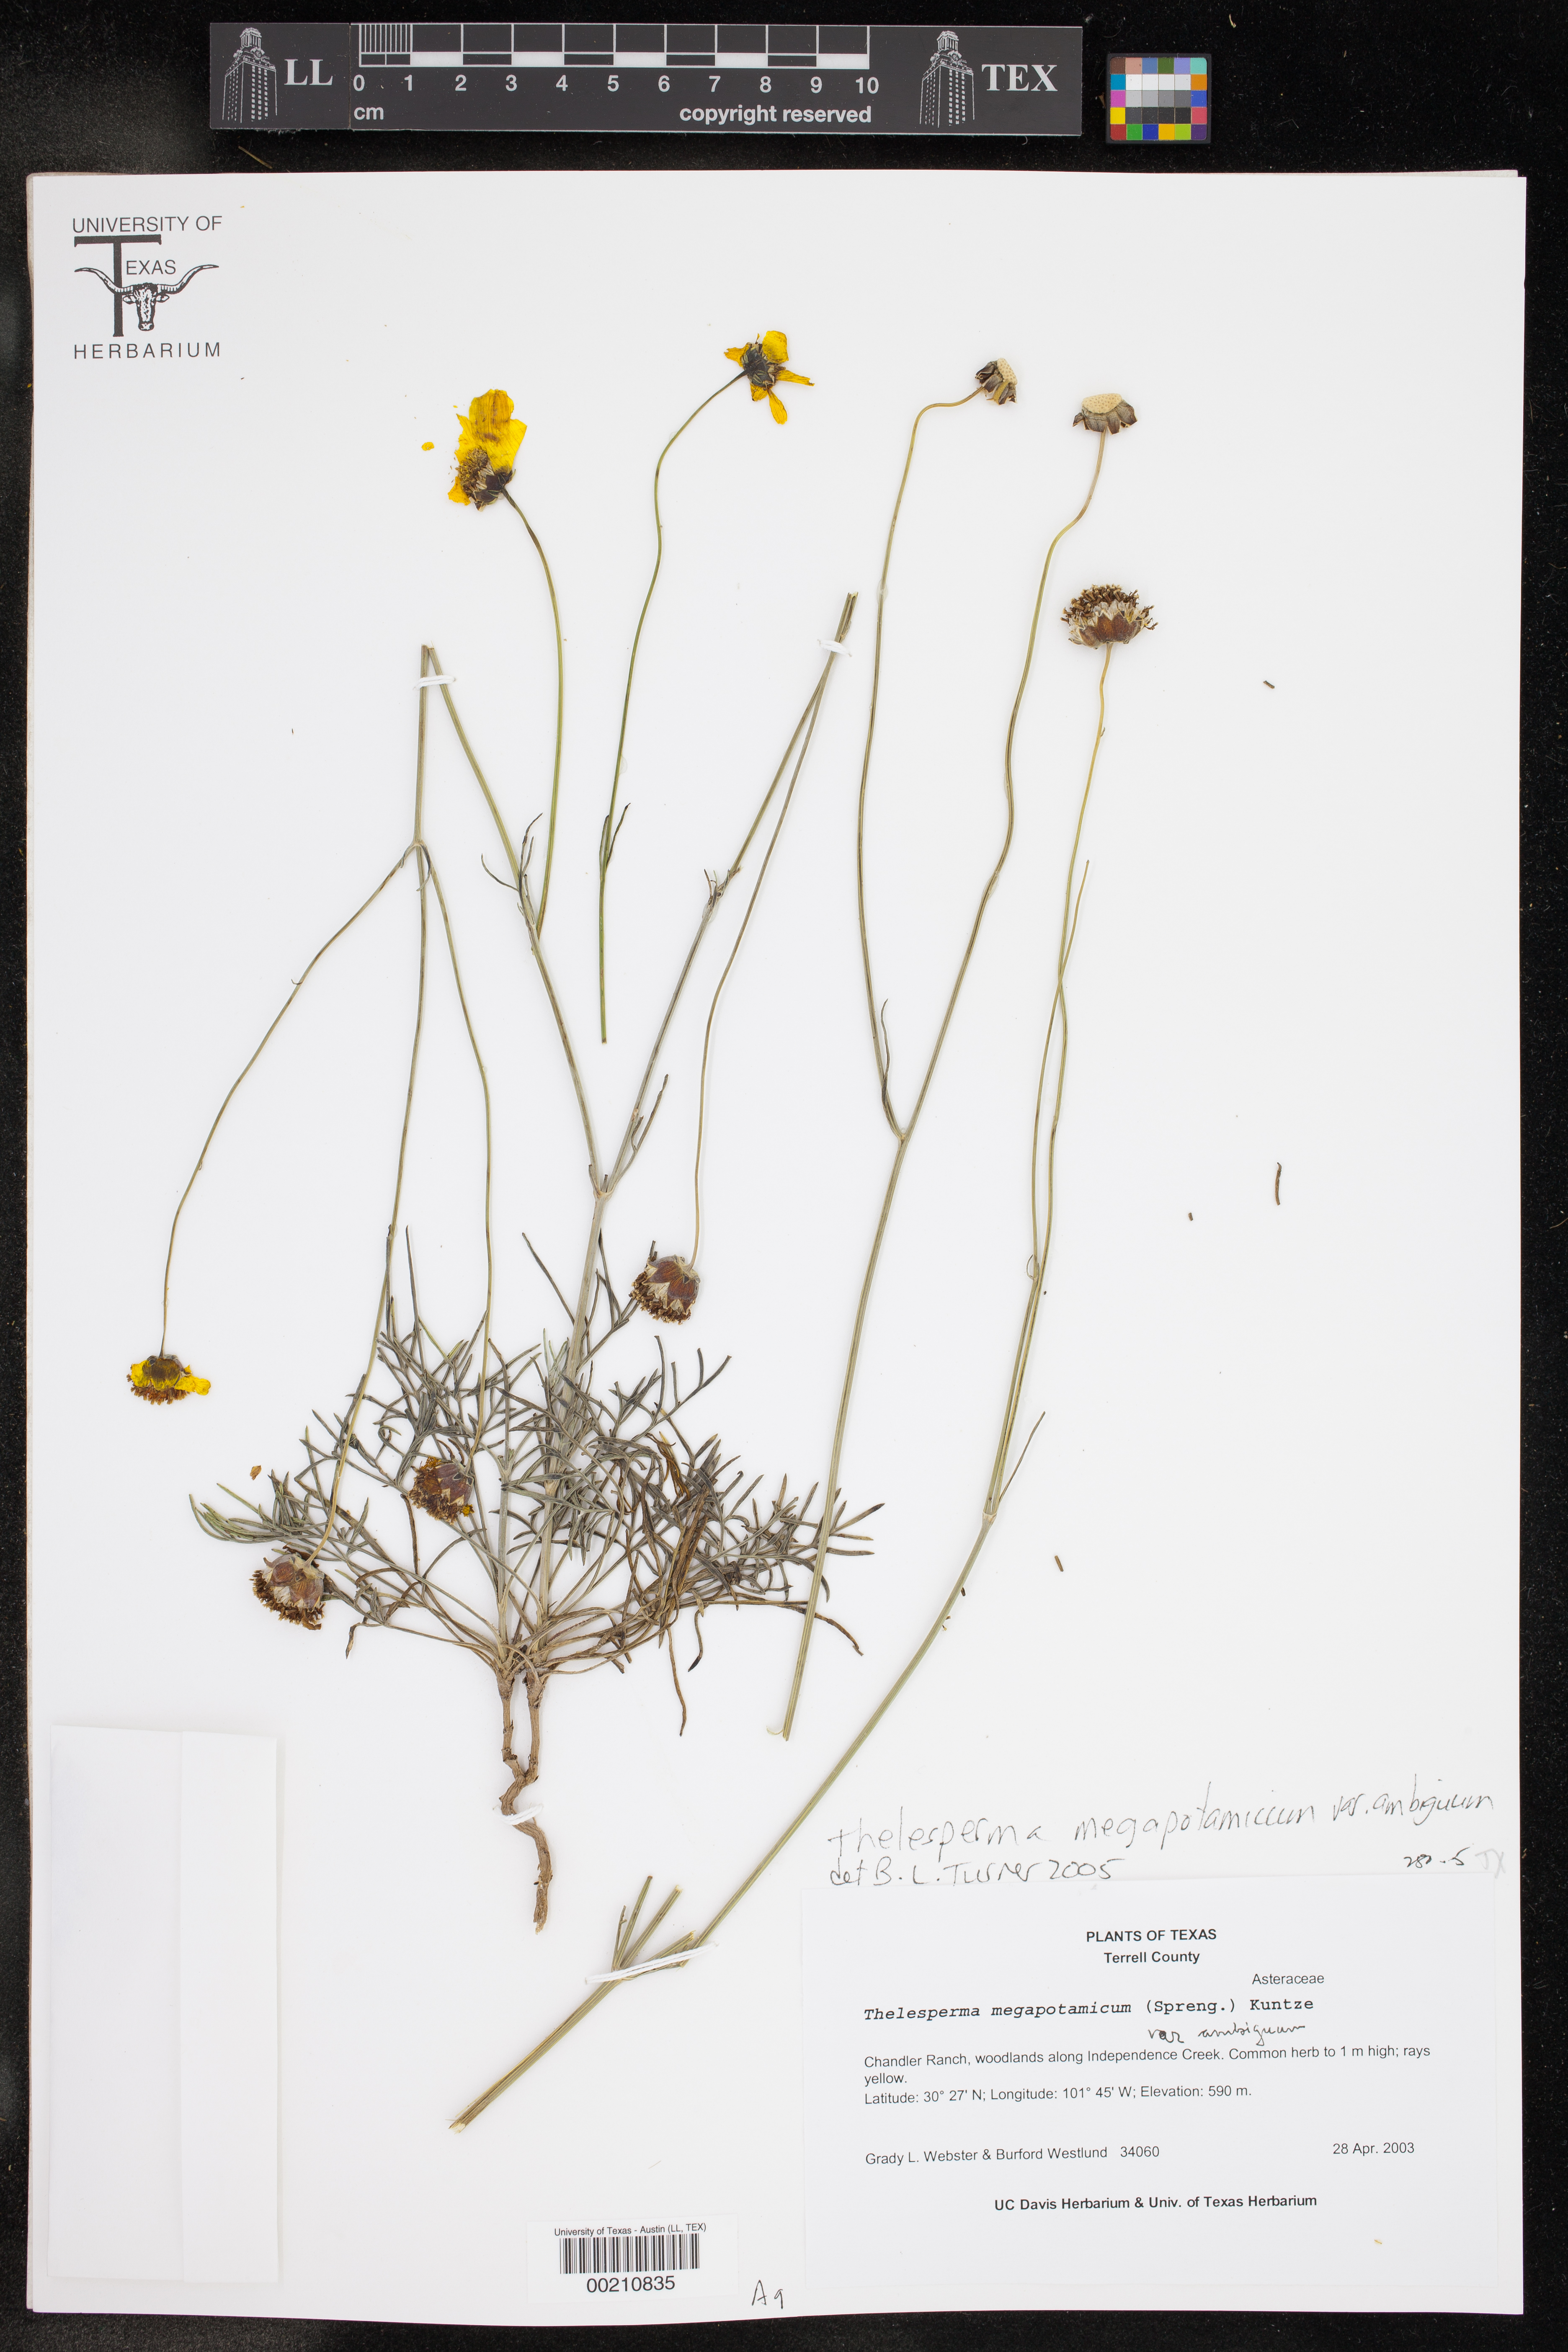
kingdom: Plantae
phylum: Tracheophyta
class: Magnoliopsida
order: Asterales
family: Asteraceae
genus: Thelesperma
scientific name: Thelesperma ambiguum
